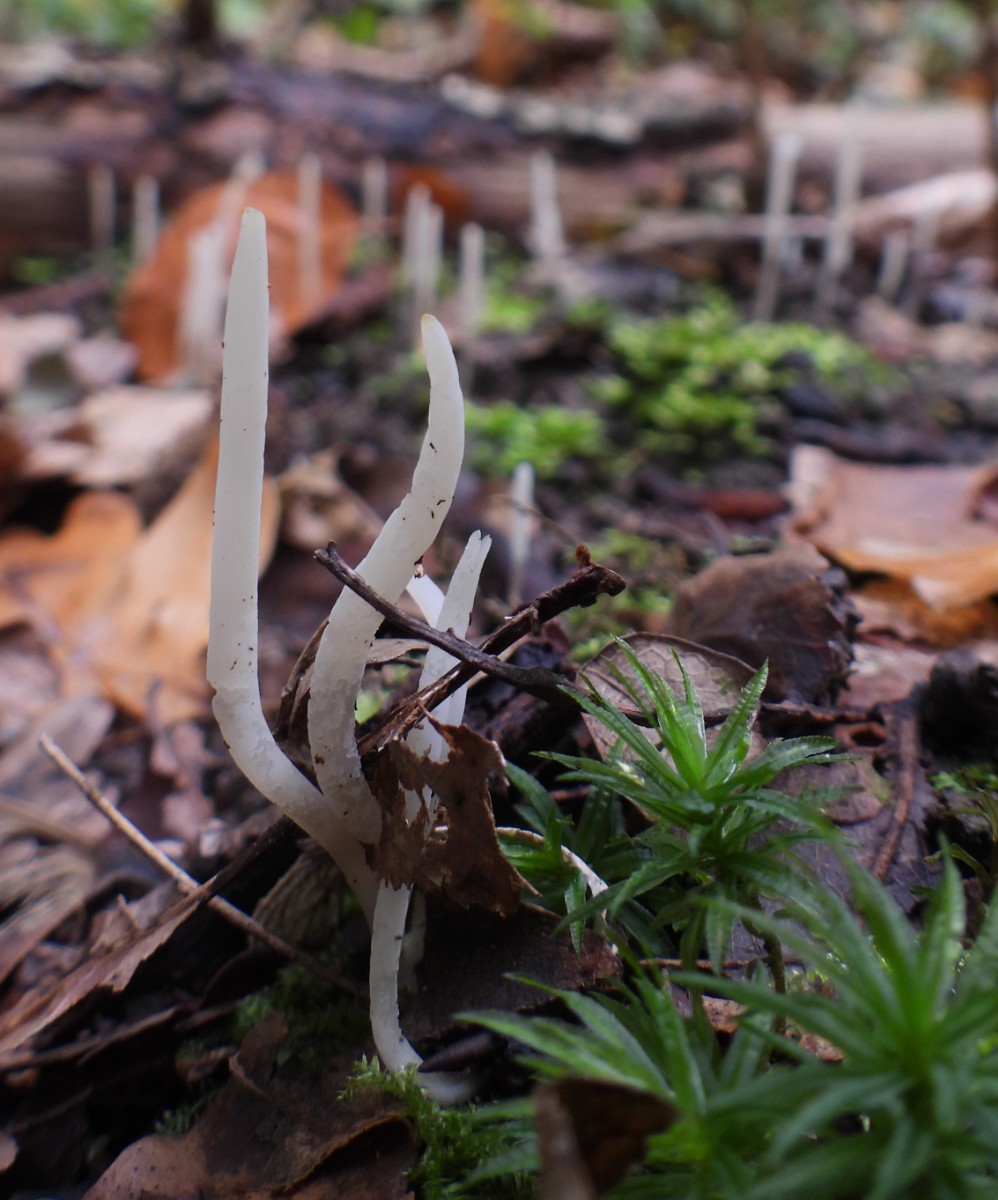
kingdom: Fungi
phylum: Basidiomycota
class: Agaricomycetes
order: Agaricales
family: Clavariaceae
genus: Clavaria
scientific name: Clavaria falcata
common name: hvid køllesvamp
